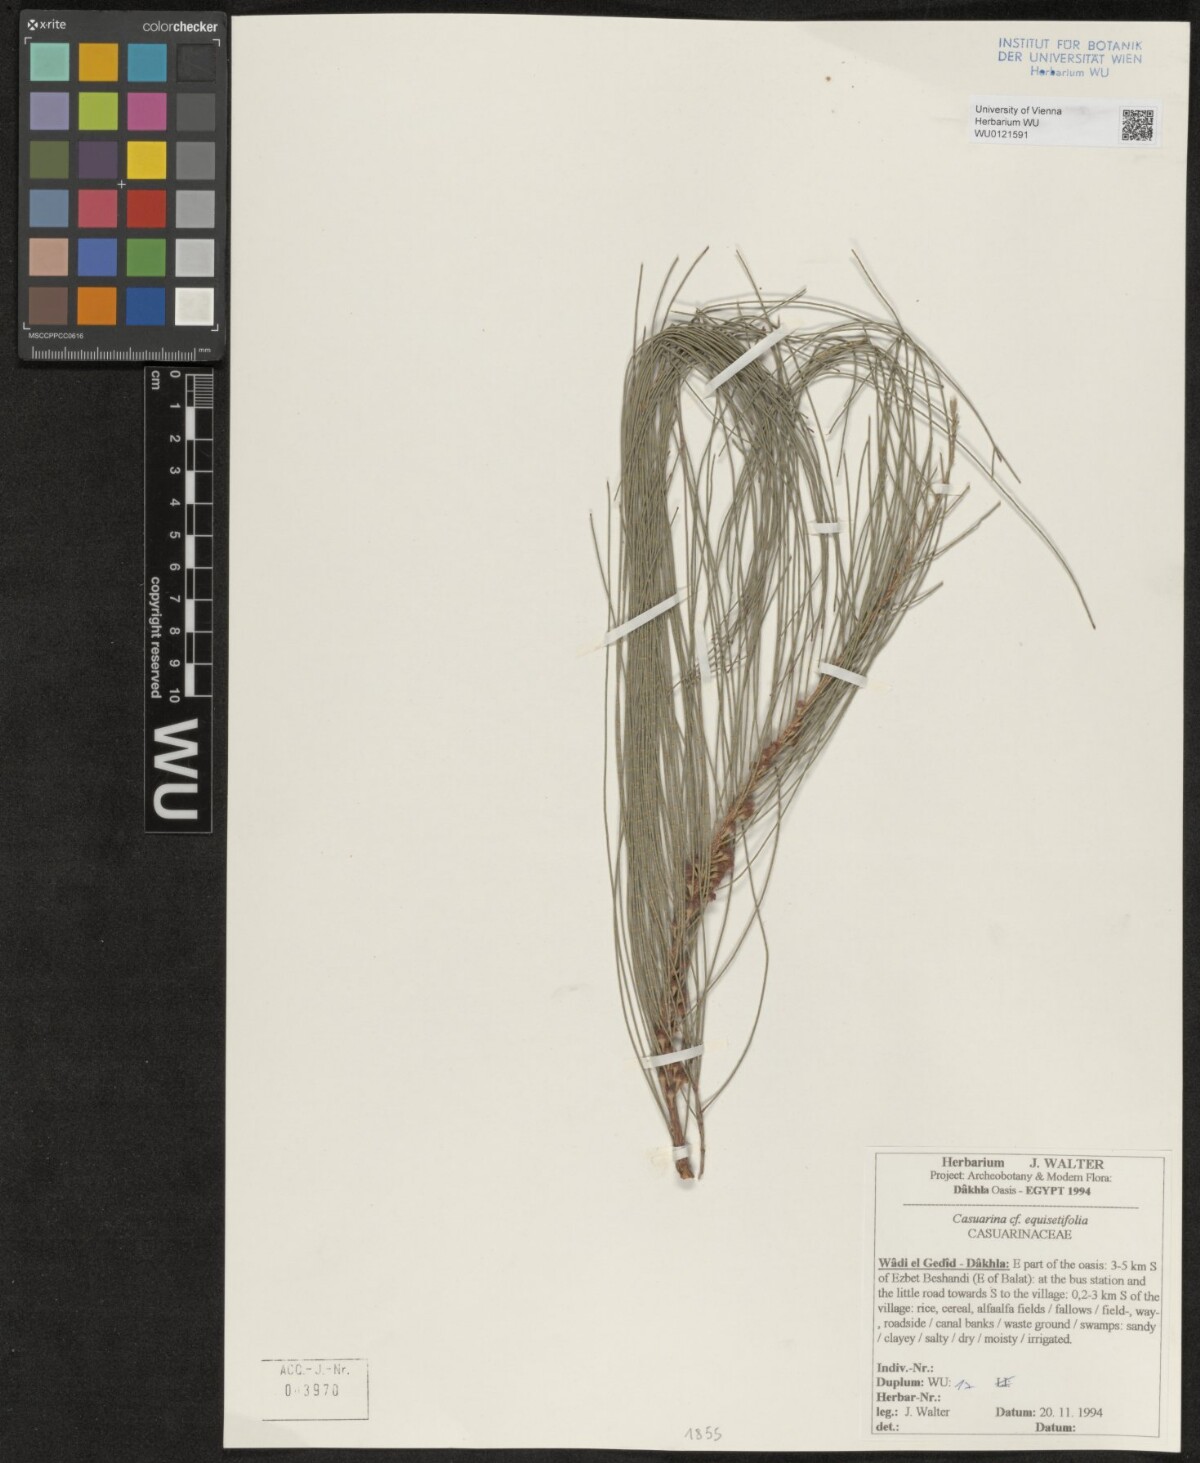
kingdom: Plantae
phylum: Tracheophyta
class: Magnoliopsida
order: Fagales
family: Casuarinaceae
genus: Casuarina
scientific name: Casuarina equisetifolia
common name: Beach sheoak
